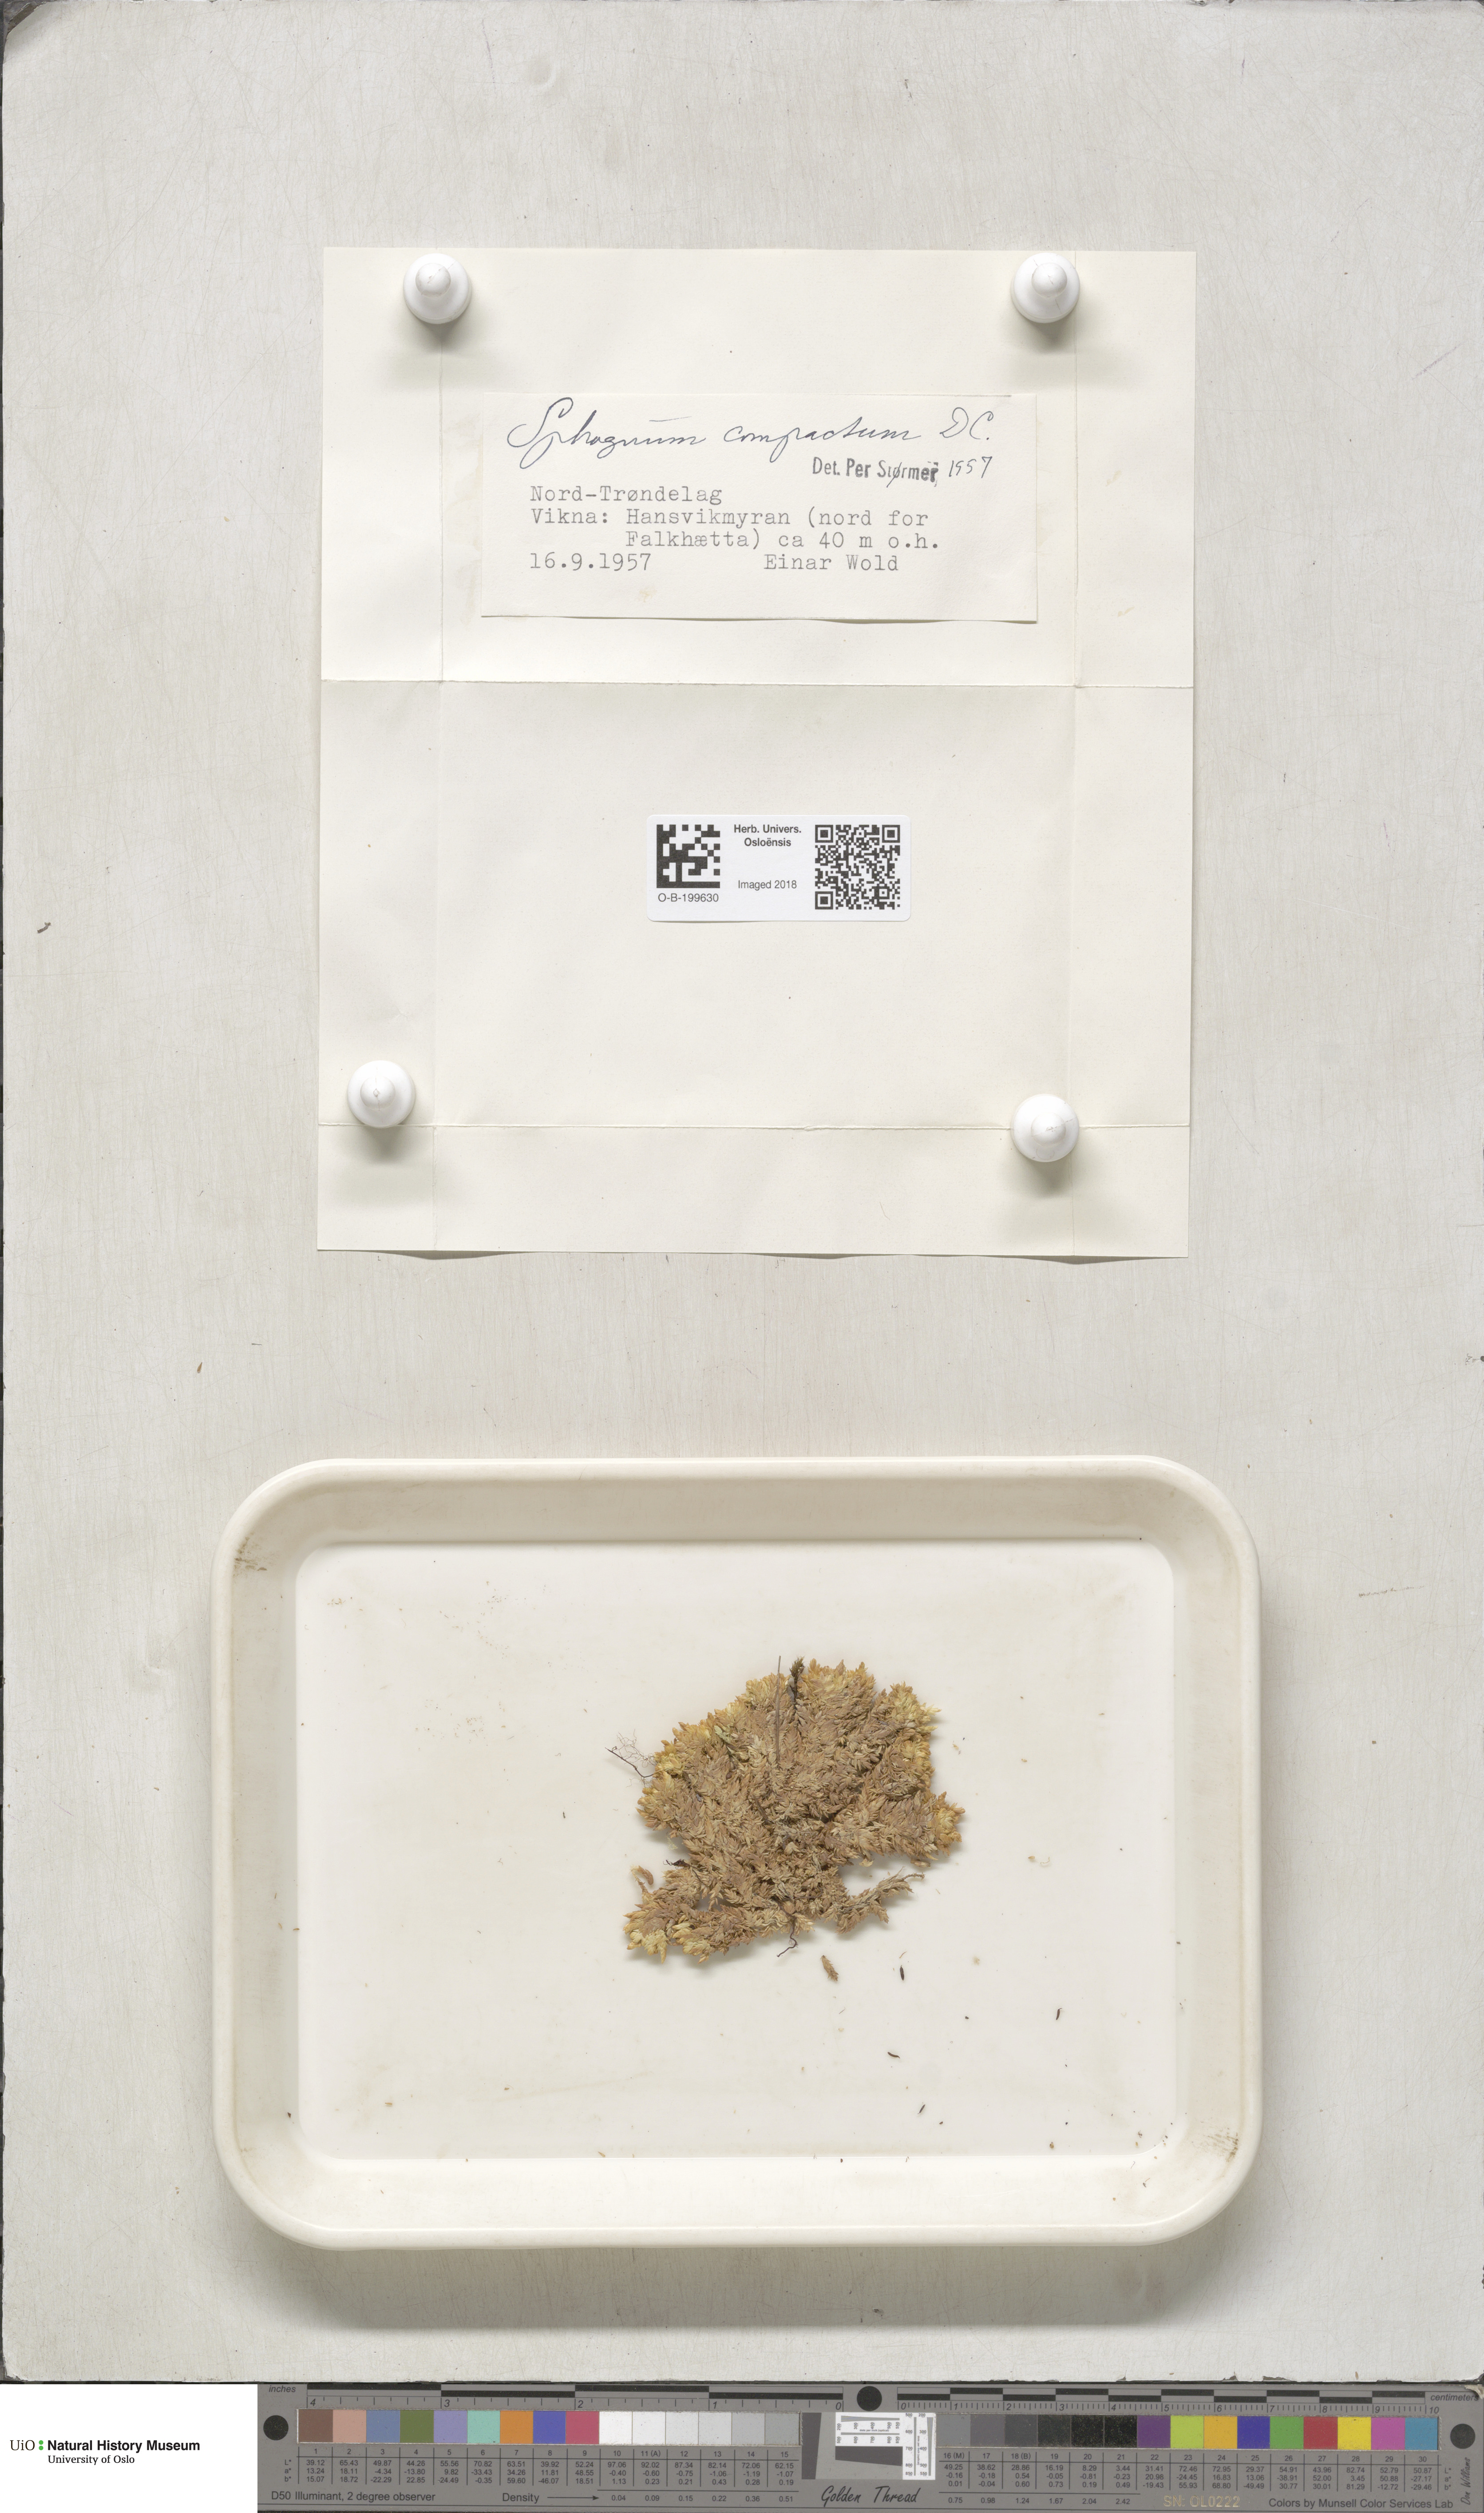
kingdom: Plantae
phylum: Bryophyta
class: Sphagnopsida
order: Sphagnales
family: Sphagnaceae
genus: Sphagnum
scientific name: Sphagnum compactum
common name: Compact peat moss
